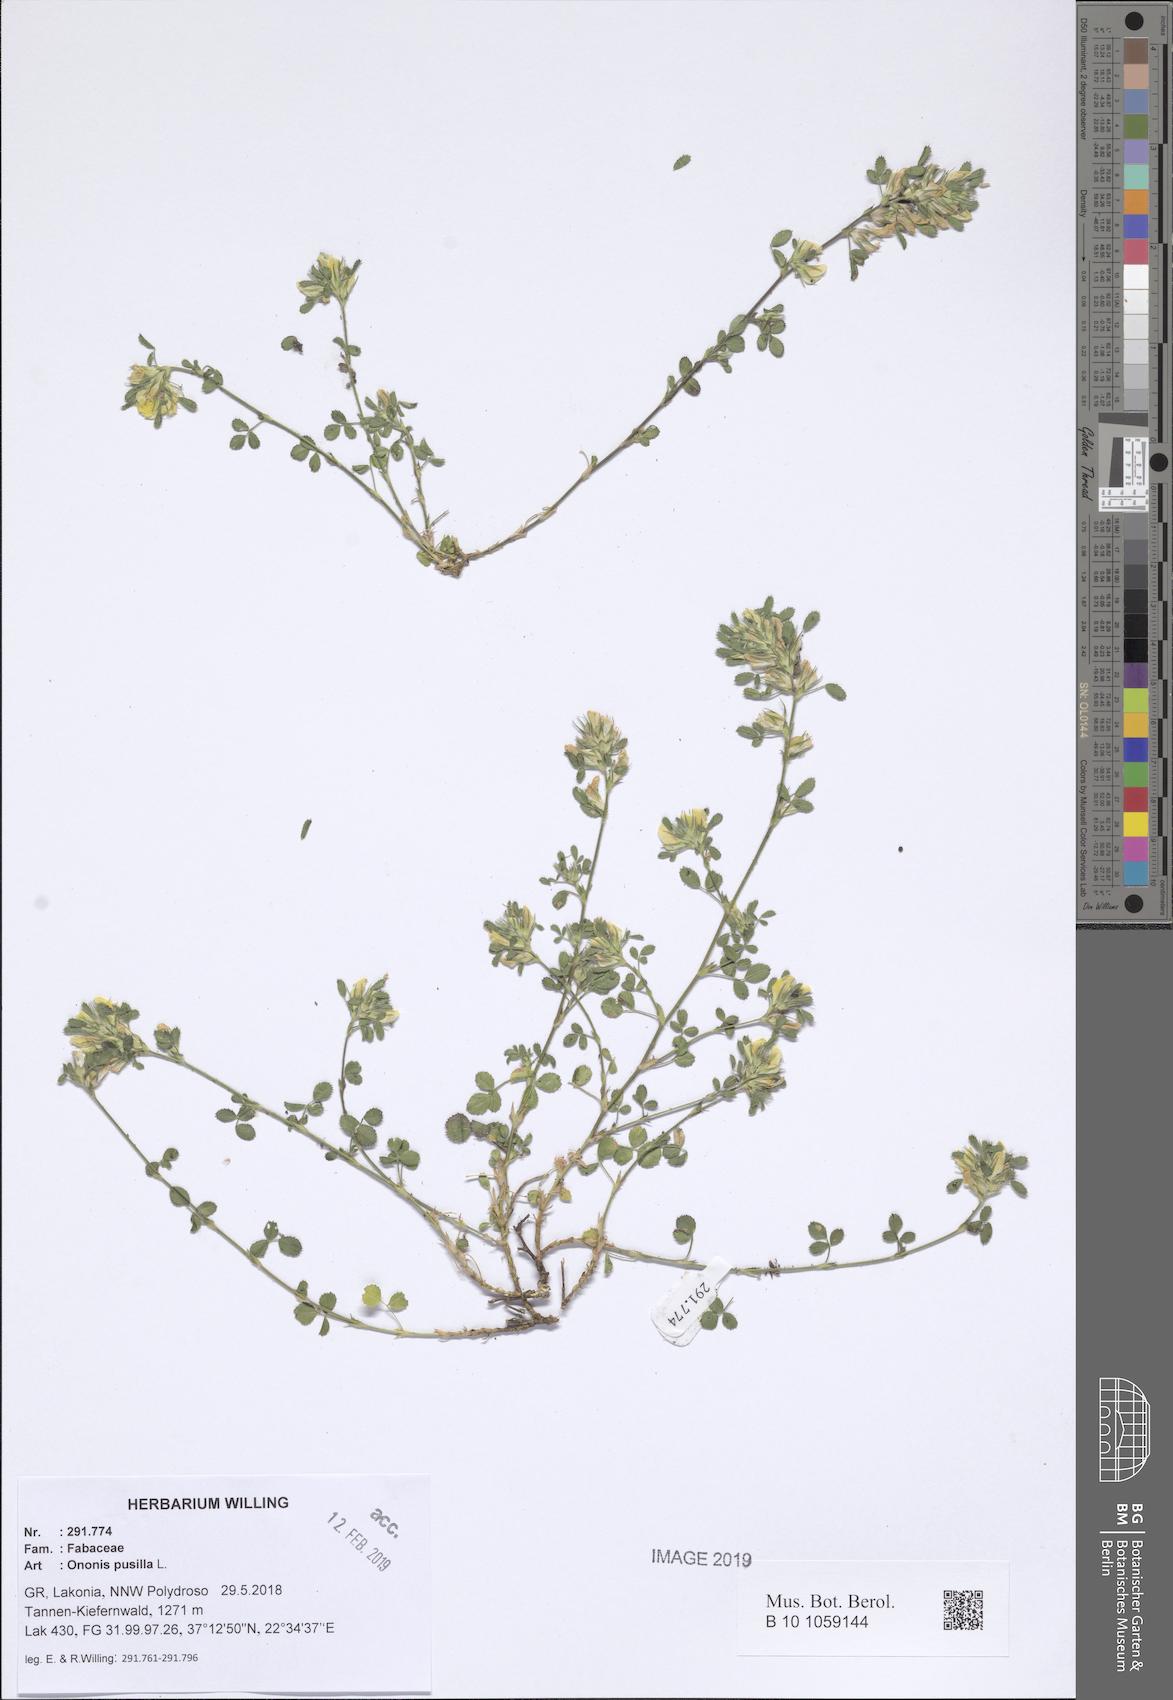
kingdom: Plantae
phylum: Tracheophyta
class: Magnoliopsida
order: Fabales
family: Fabaceae
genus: Ononis
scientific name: Ononis pusilla
